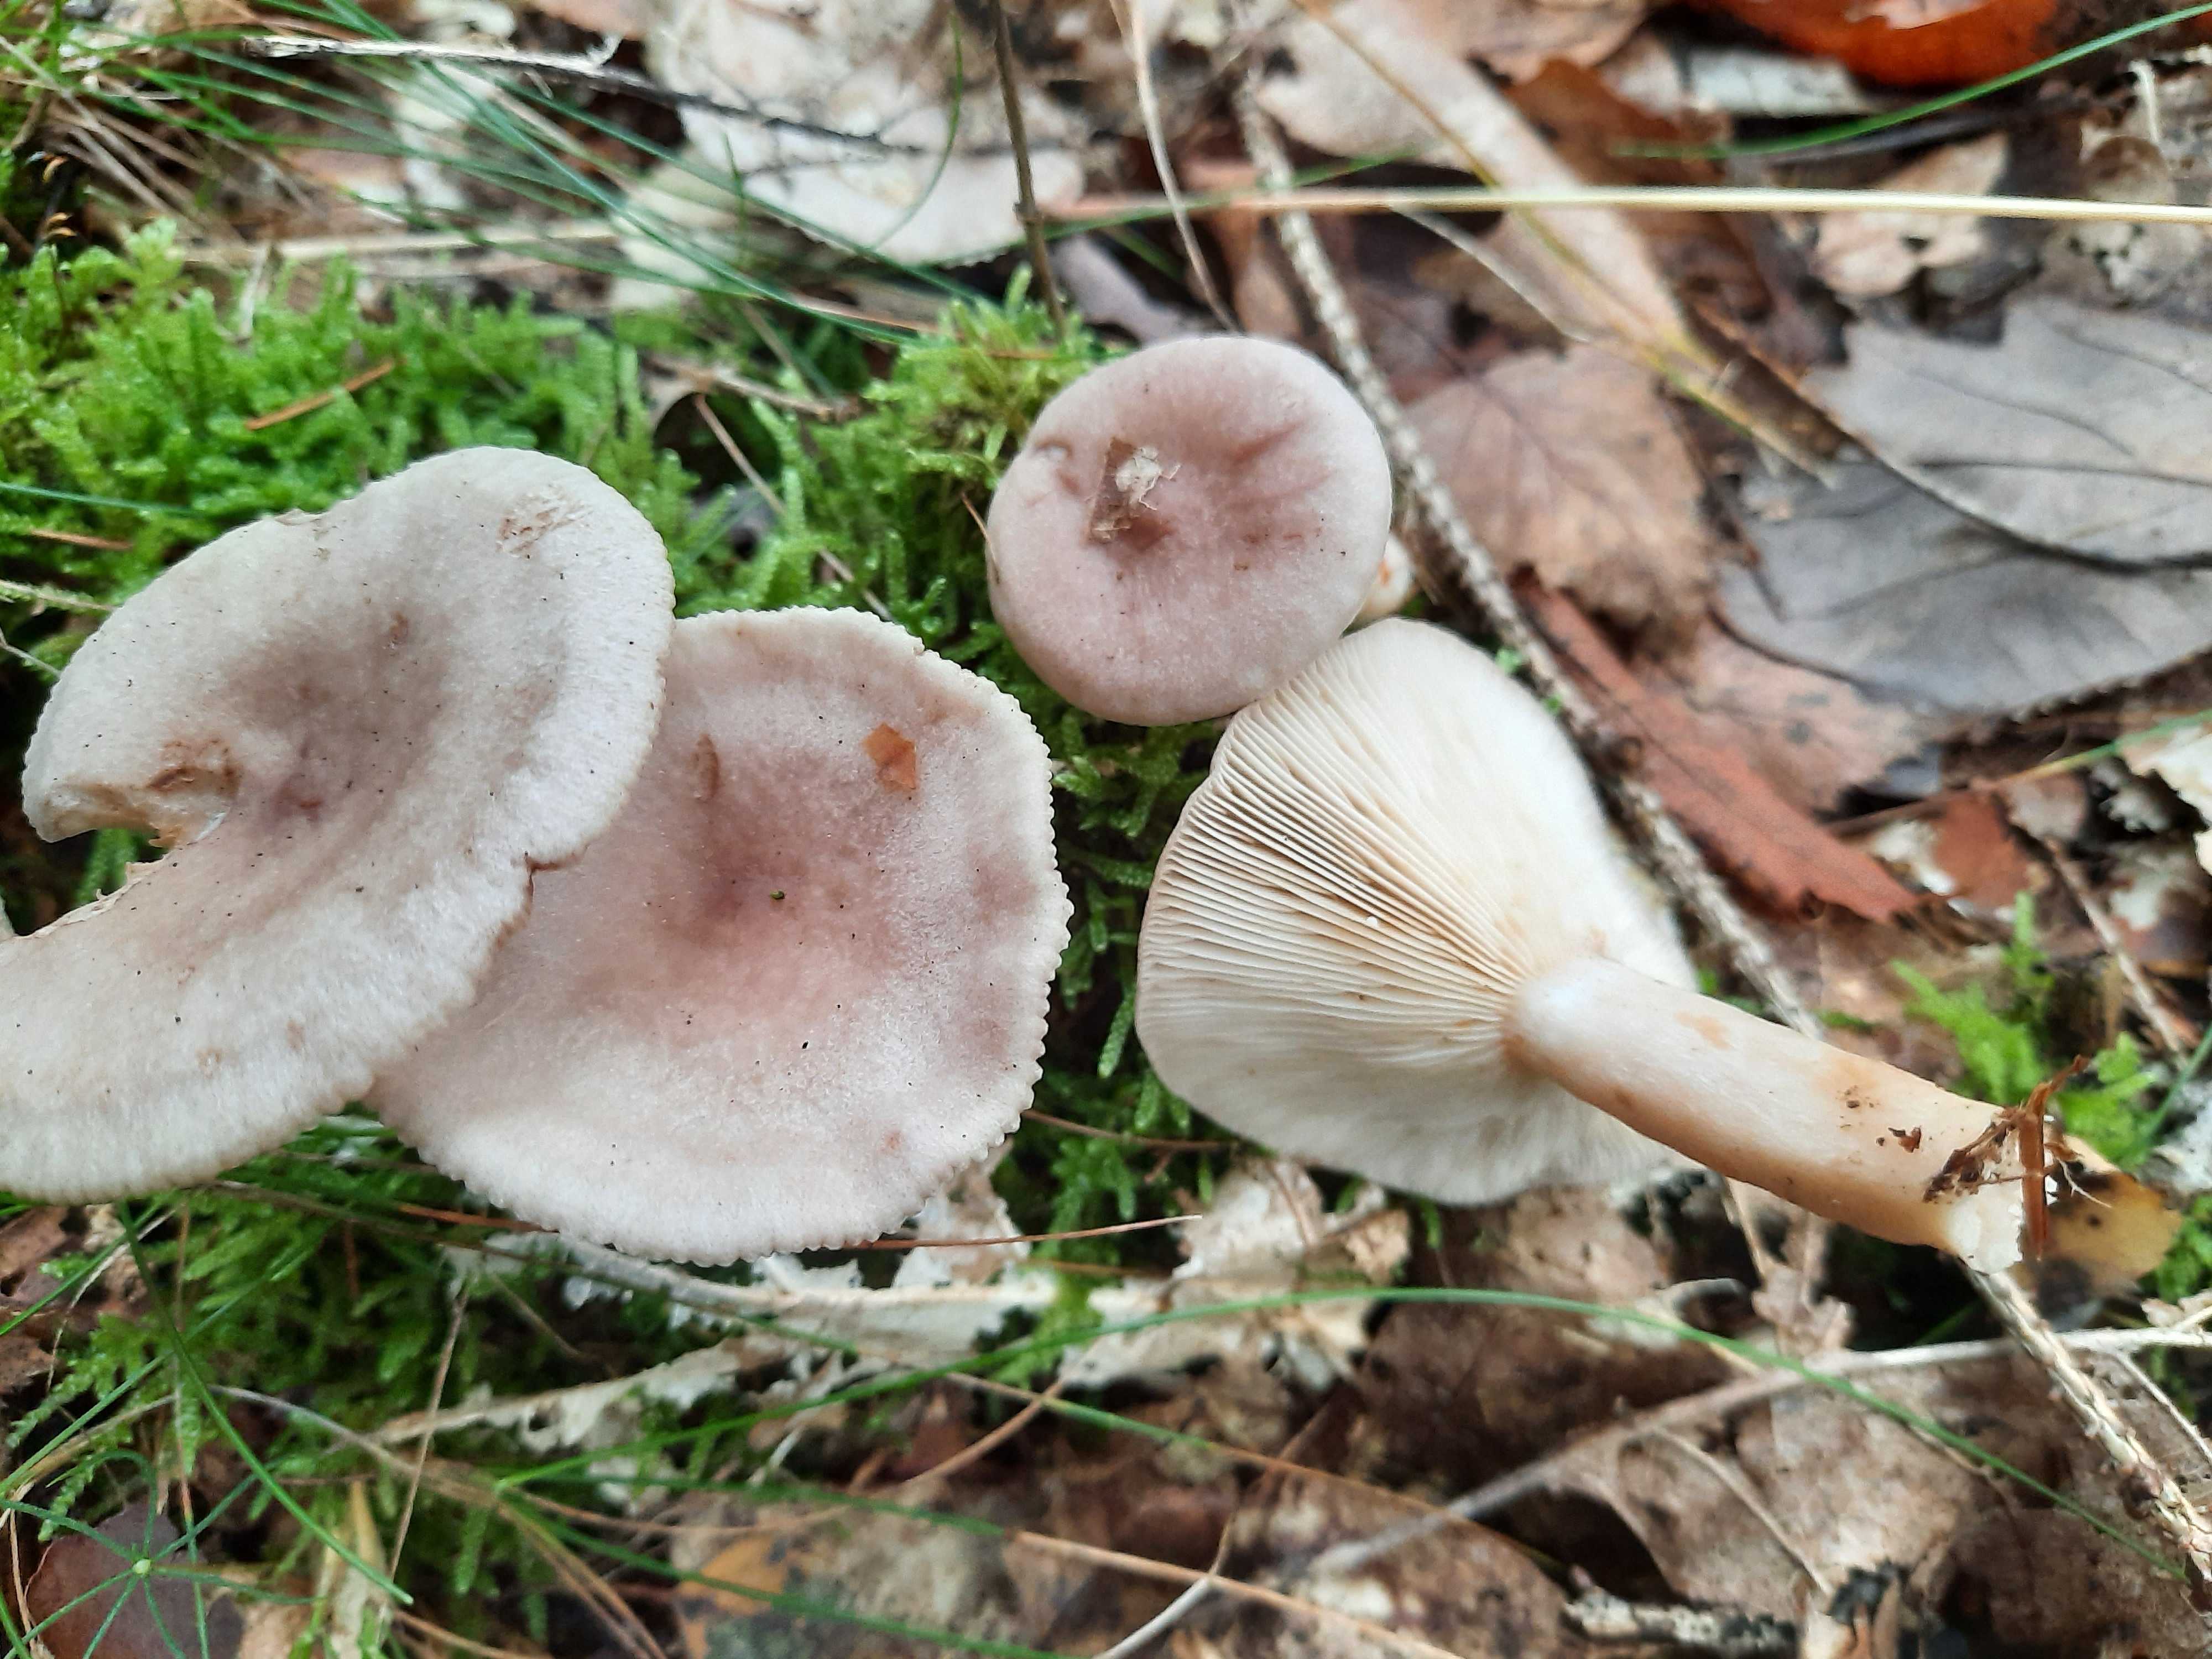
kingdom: Fungi
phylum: Basidiomycota
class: Agaricomycetes
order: Russulales
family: Russulaceae
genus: Lactarius
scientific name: Lactarius vietus
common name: violetgrå mælkehat
